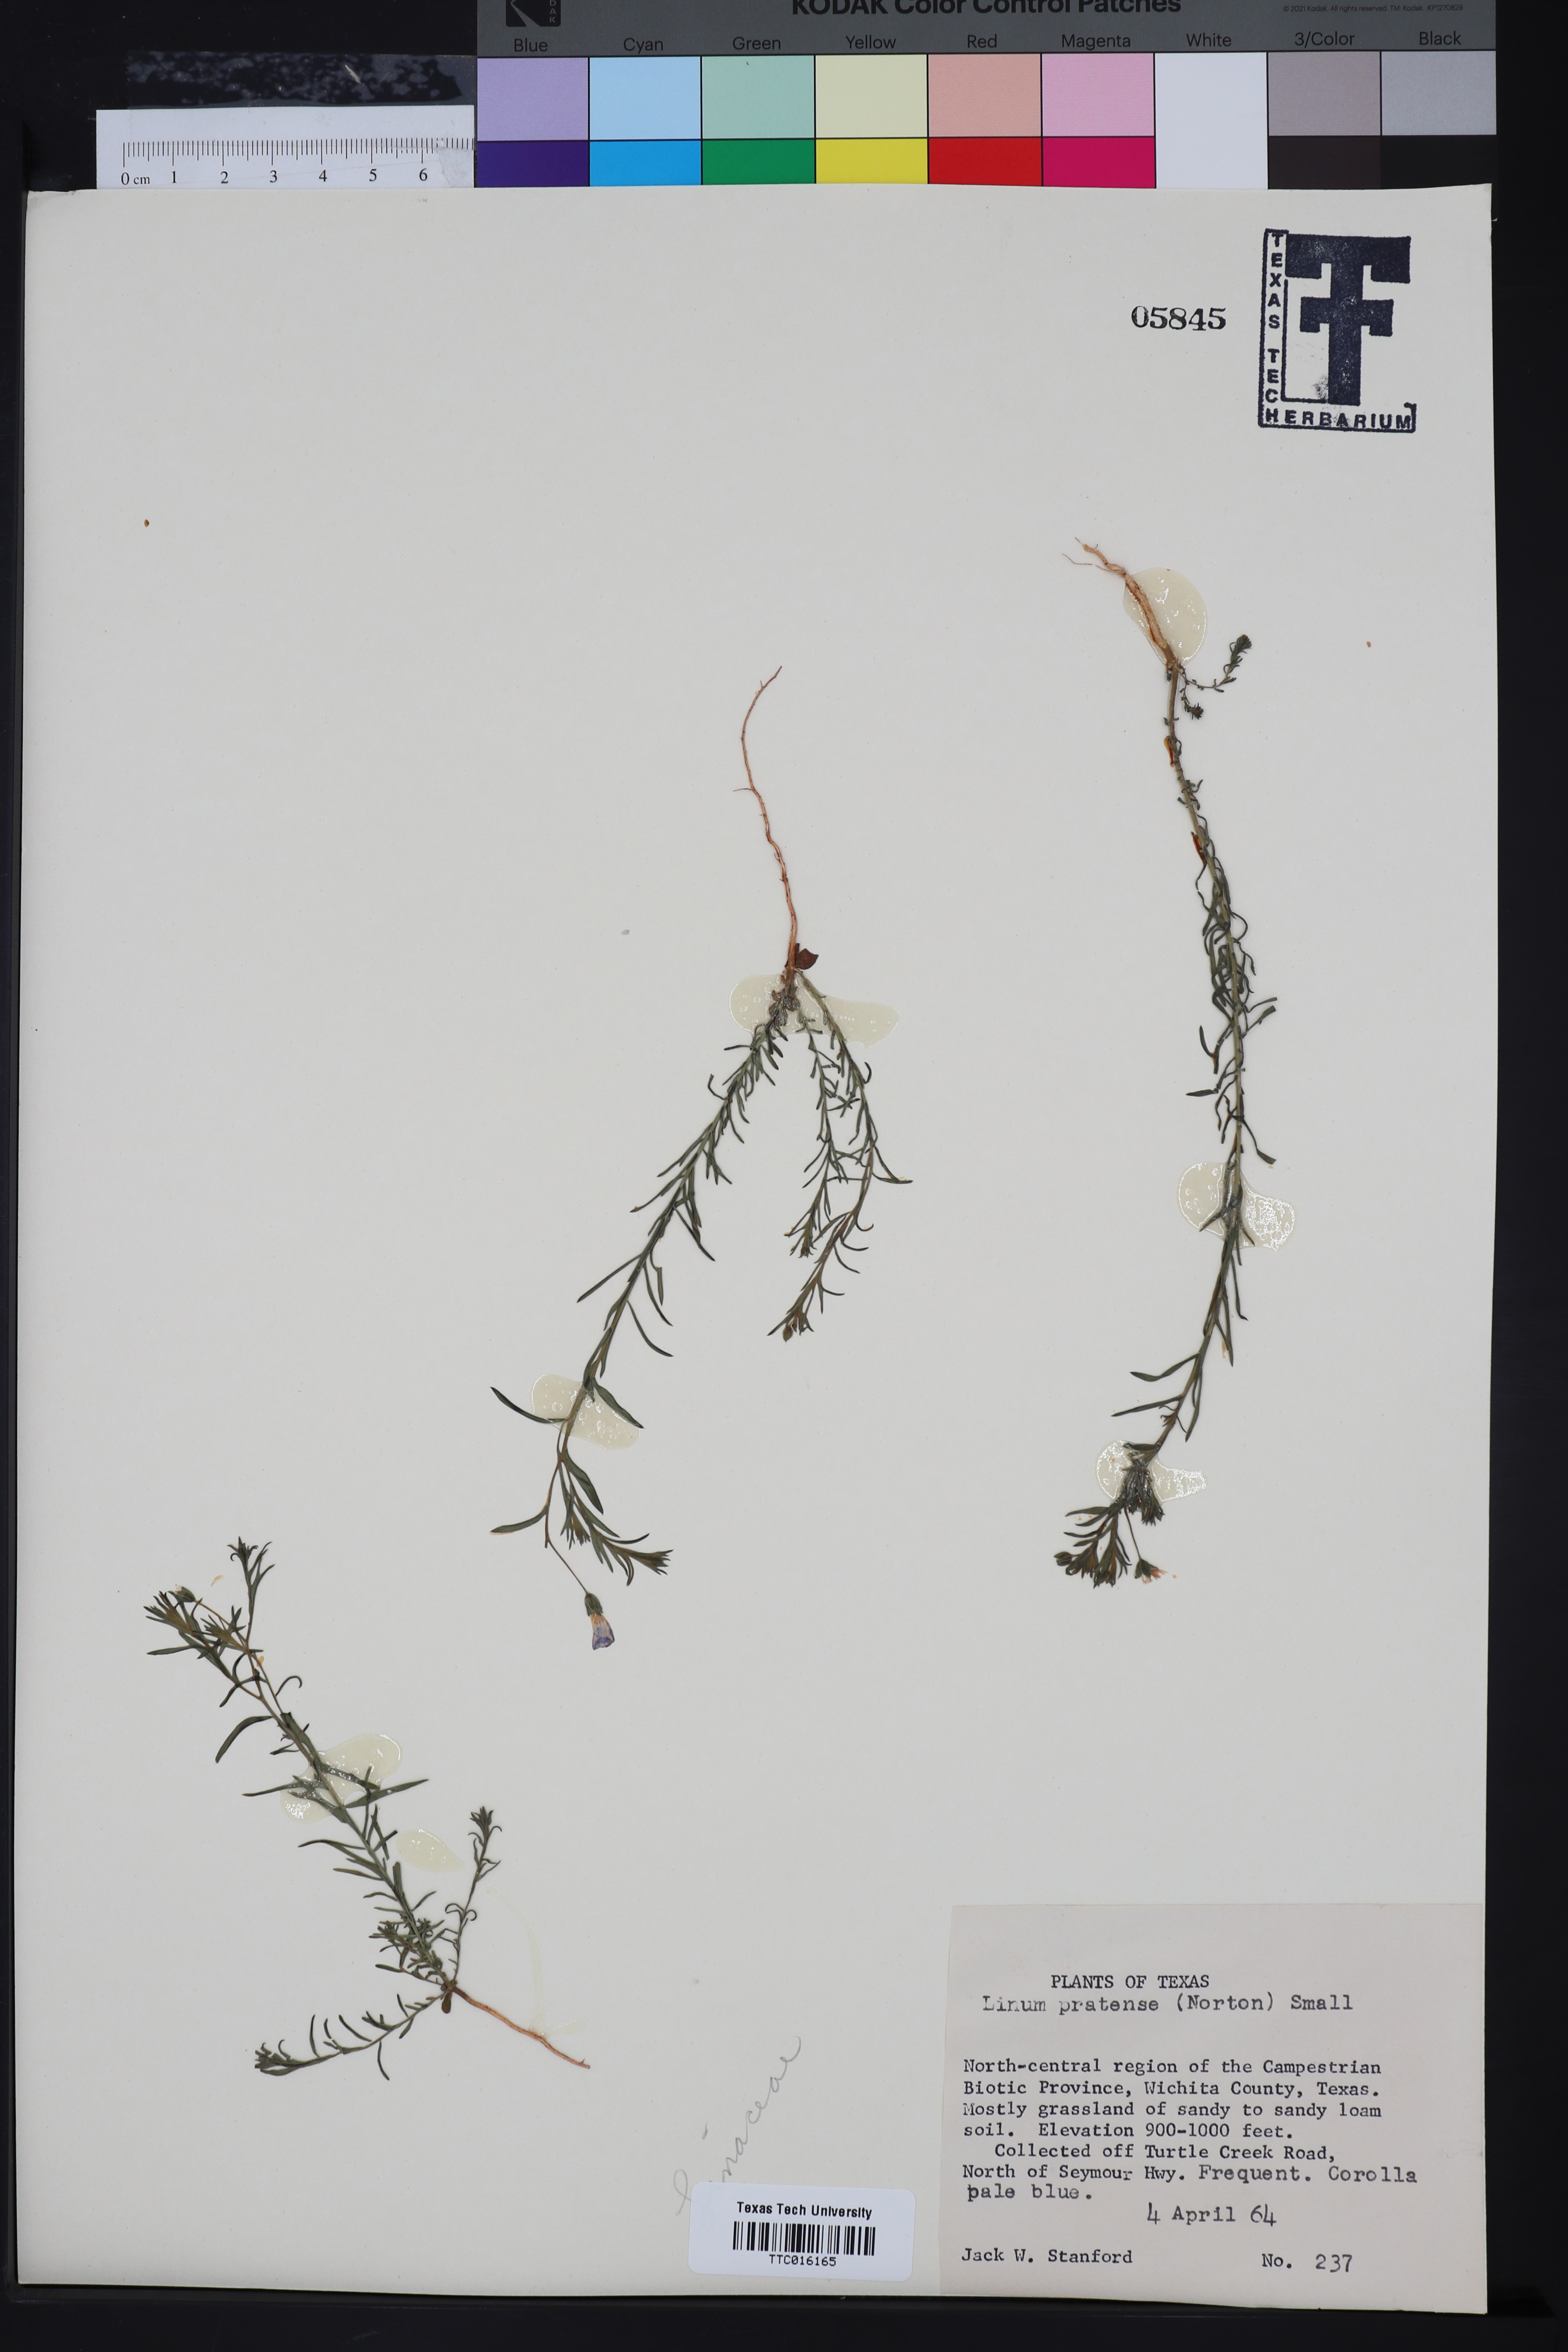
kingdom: Plantae
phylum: Tracheophyta
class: Magnoliopsida
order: Malpighiales
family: Linaceae
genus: Linum
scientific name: Linum pratense
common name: Norton's flax
